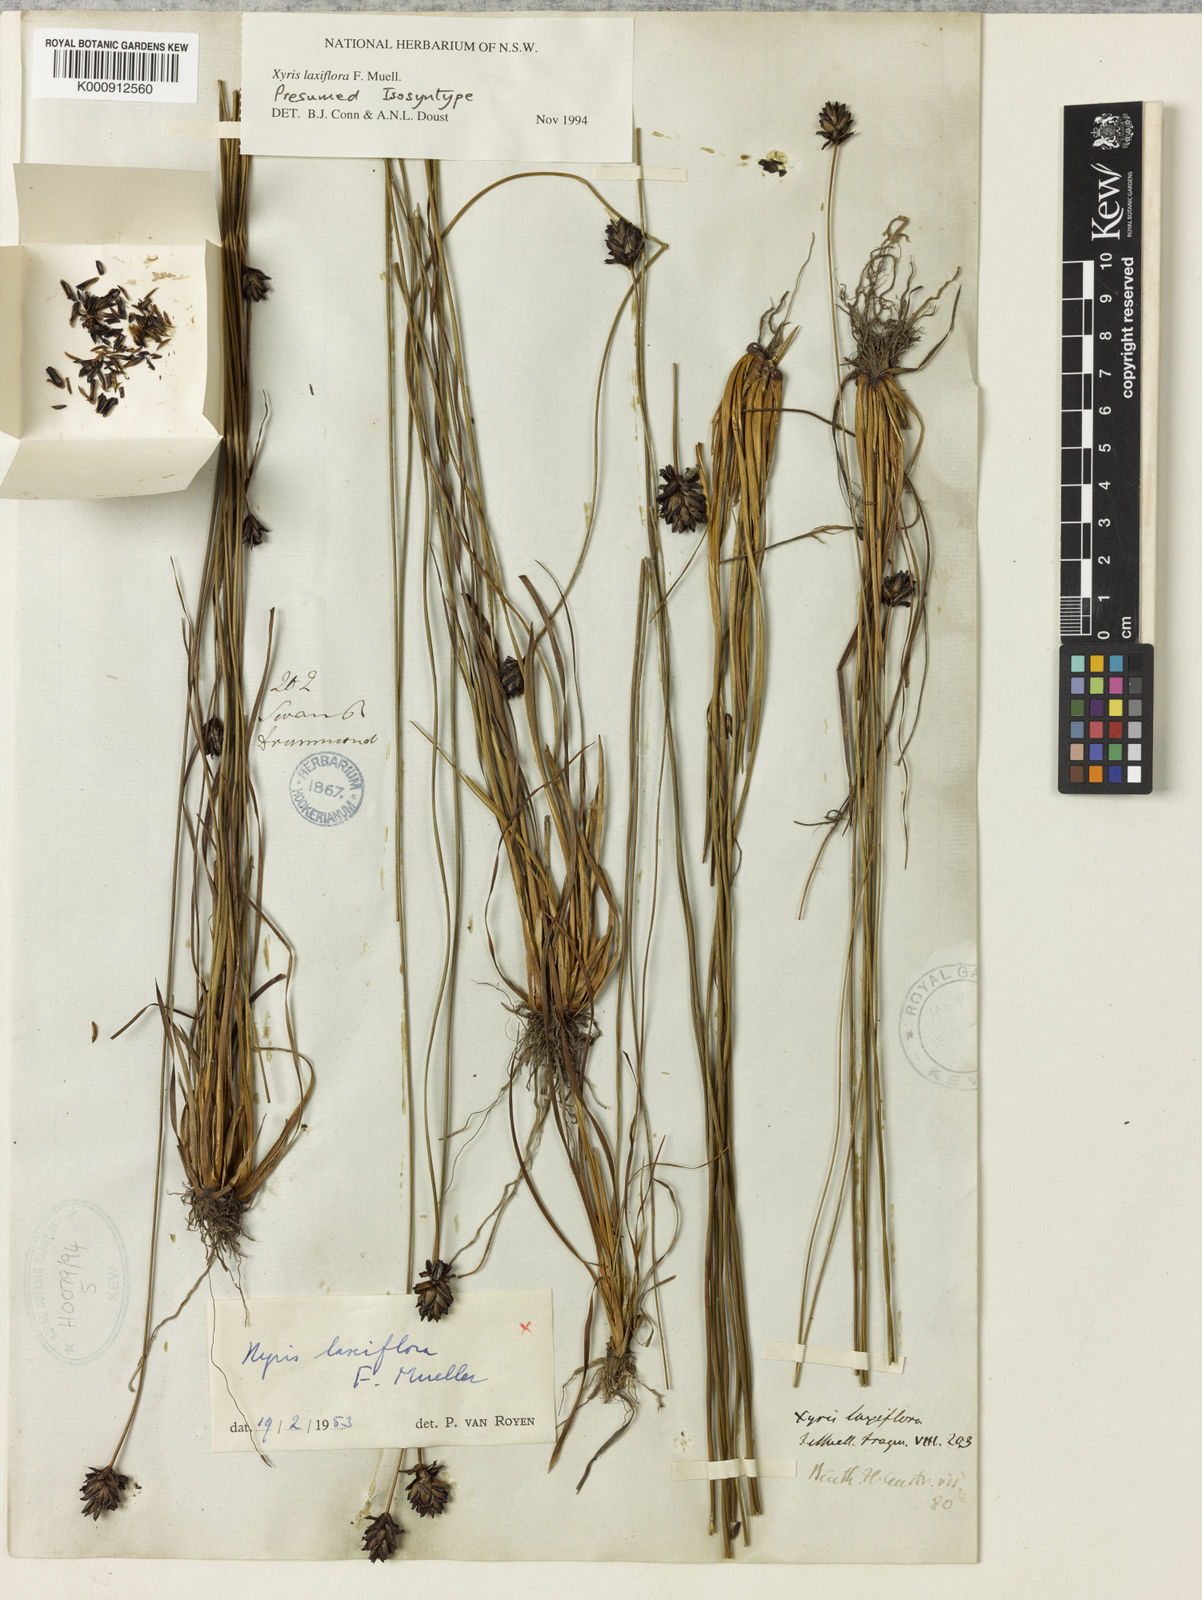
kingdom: Plantae
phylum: Tracheophyta
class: Liliopsida
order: Poales
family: Xyridaceae
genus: Xyris
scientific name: Xyris laxiflora
